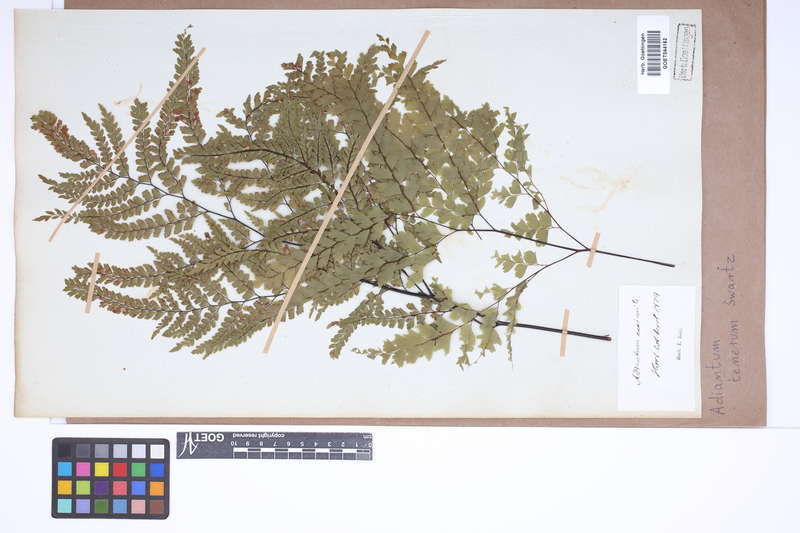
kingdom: Plantae
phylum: Tracheophyta
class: Polypodiopsida
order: Polypodiales
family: Pteridaceae
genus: Adiantum
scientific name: Adiantum tenerum
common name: Fan maidenhair
